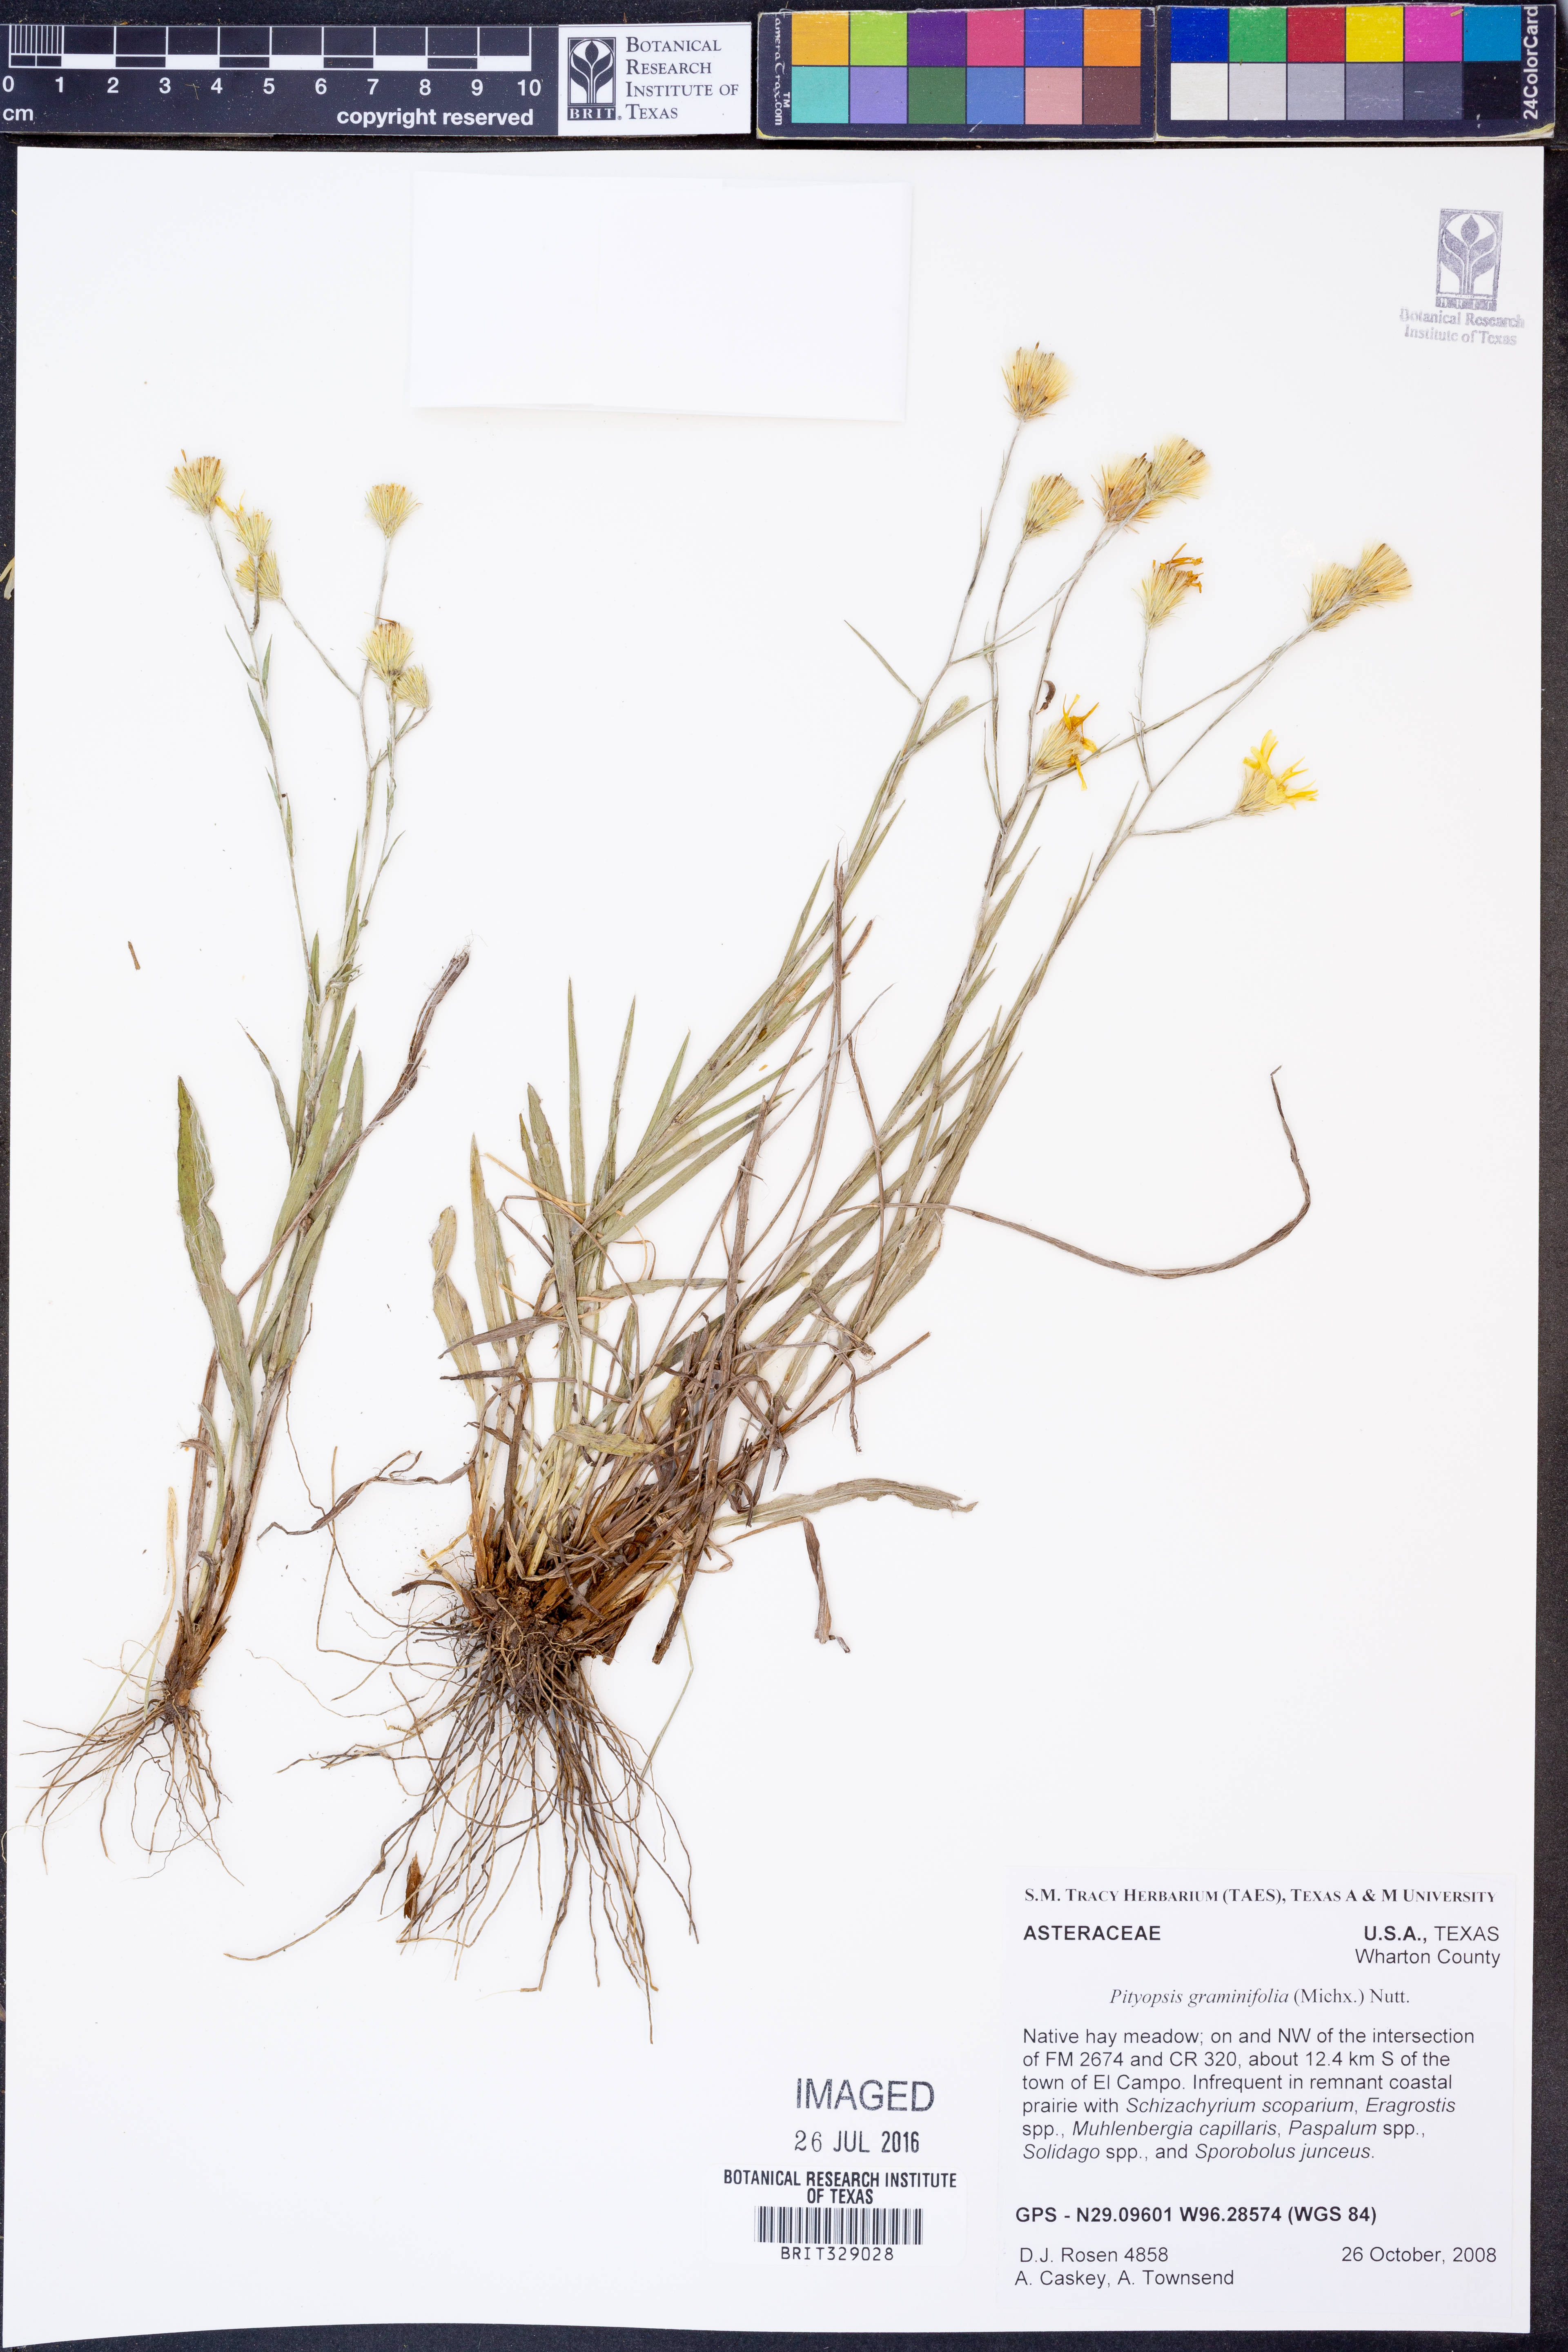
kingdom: Plantae
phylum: Tracheophyta
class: Magnoliopsida
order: Asterales
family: Asteraceae
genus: Pityopsis
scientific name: Pityopsis graminifolia
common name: Grass-leaf golden-aster
